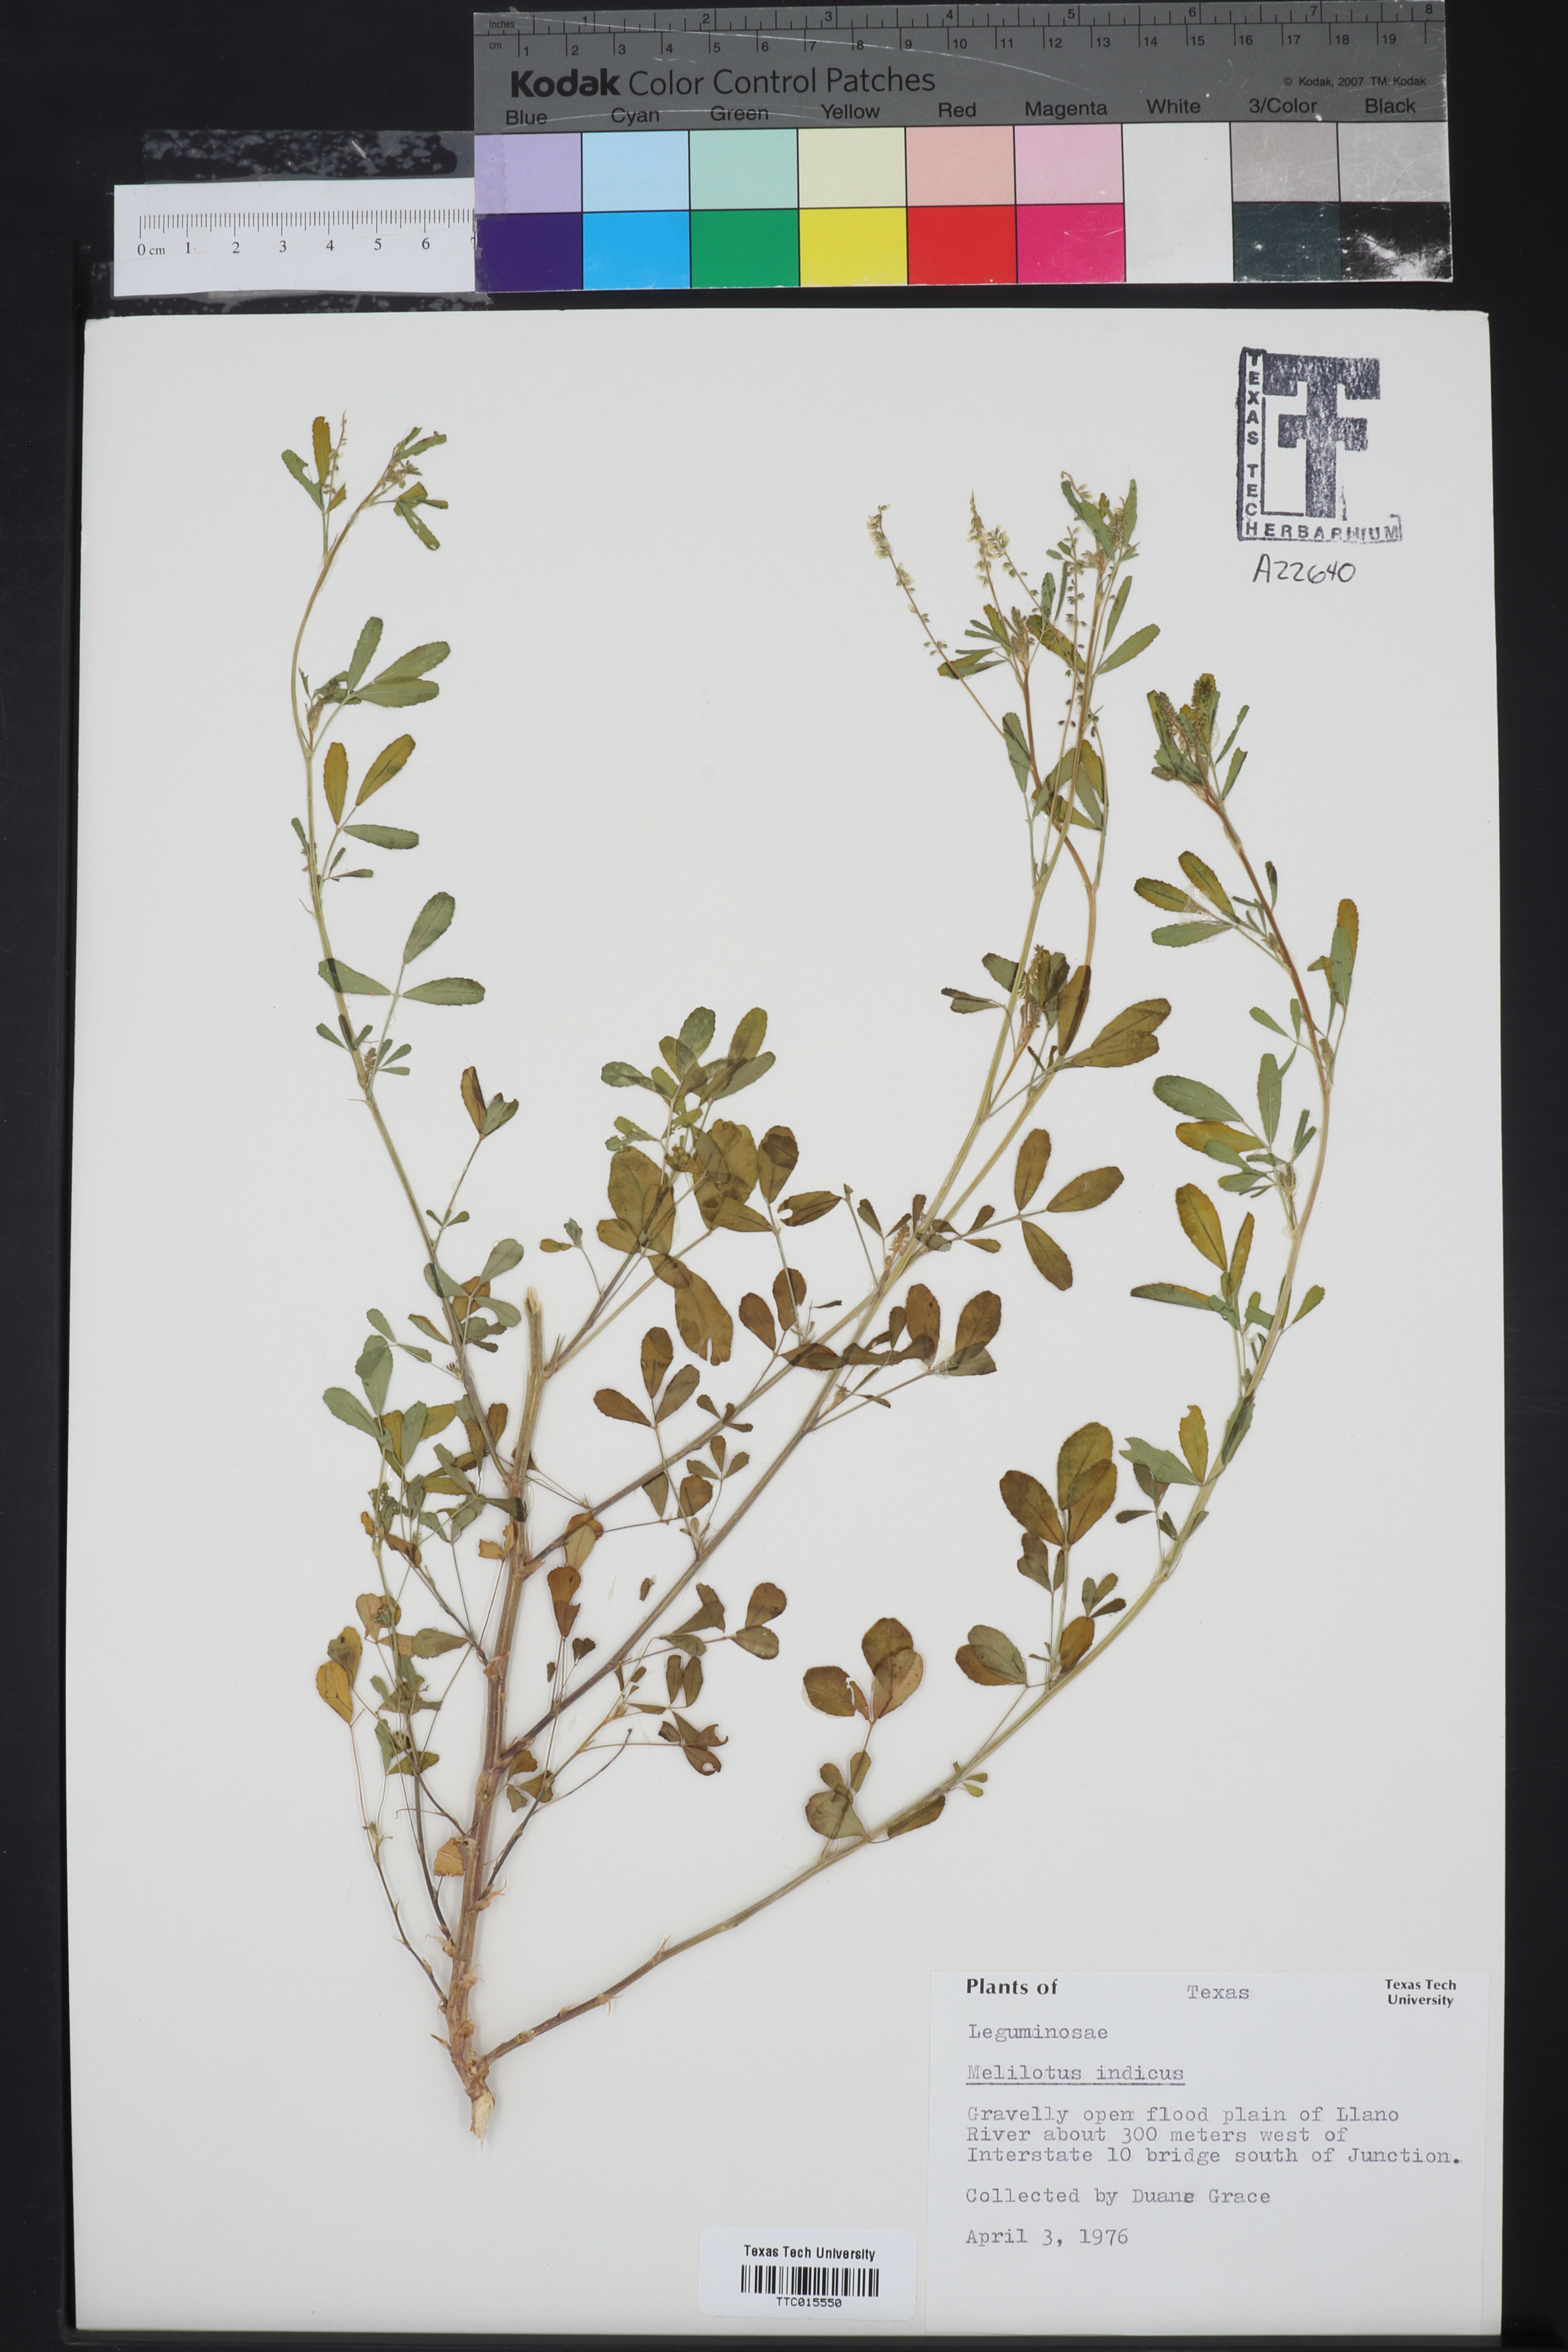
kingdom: Plantae
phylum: Tracheophyta
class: Magnoliopsida
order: Fabales
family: Fabaceae
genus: Melilotus
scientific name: Melilotus indicus
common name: Small melilot
